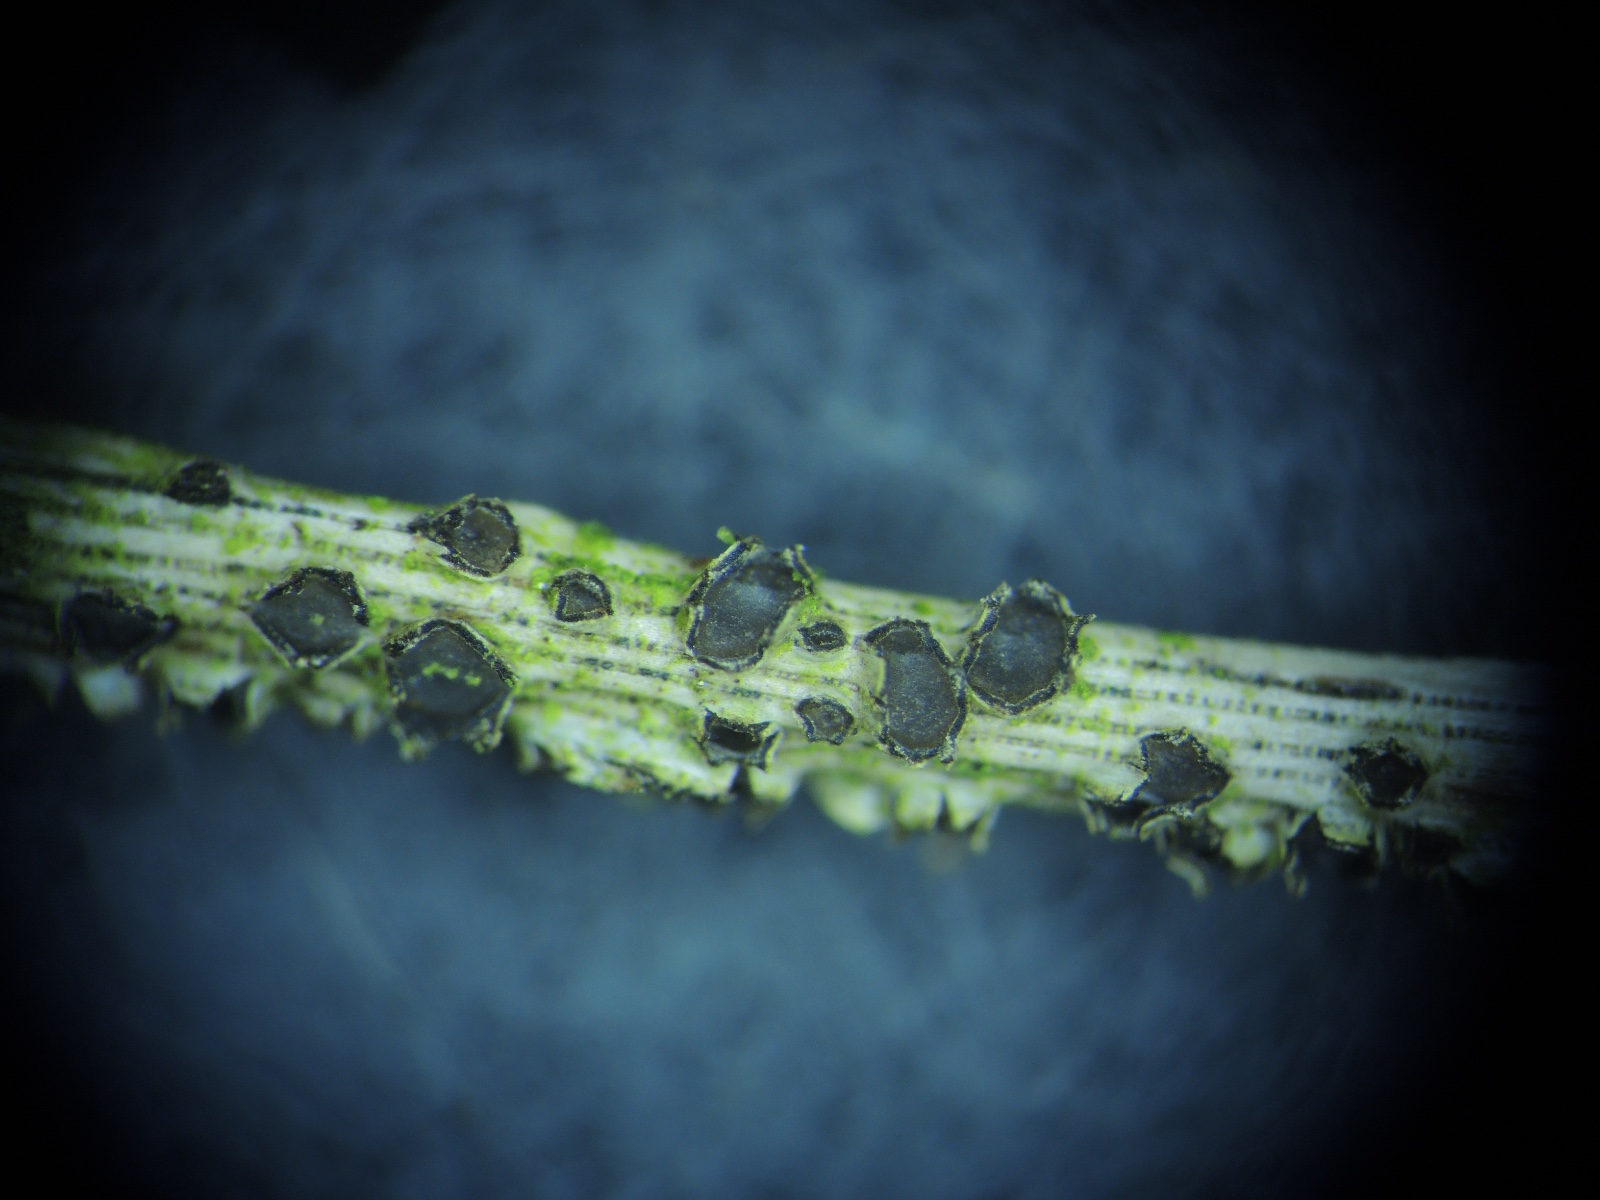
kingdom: Fungi
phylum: Ascomycota
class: Leotiomycetes
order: Phacidiales
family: Phacidiaceae
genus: Phacidium
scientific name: Phacidium
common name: tandskive
